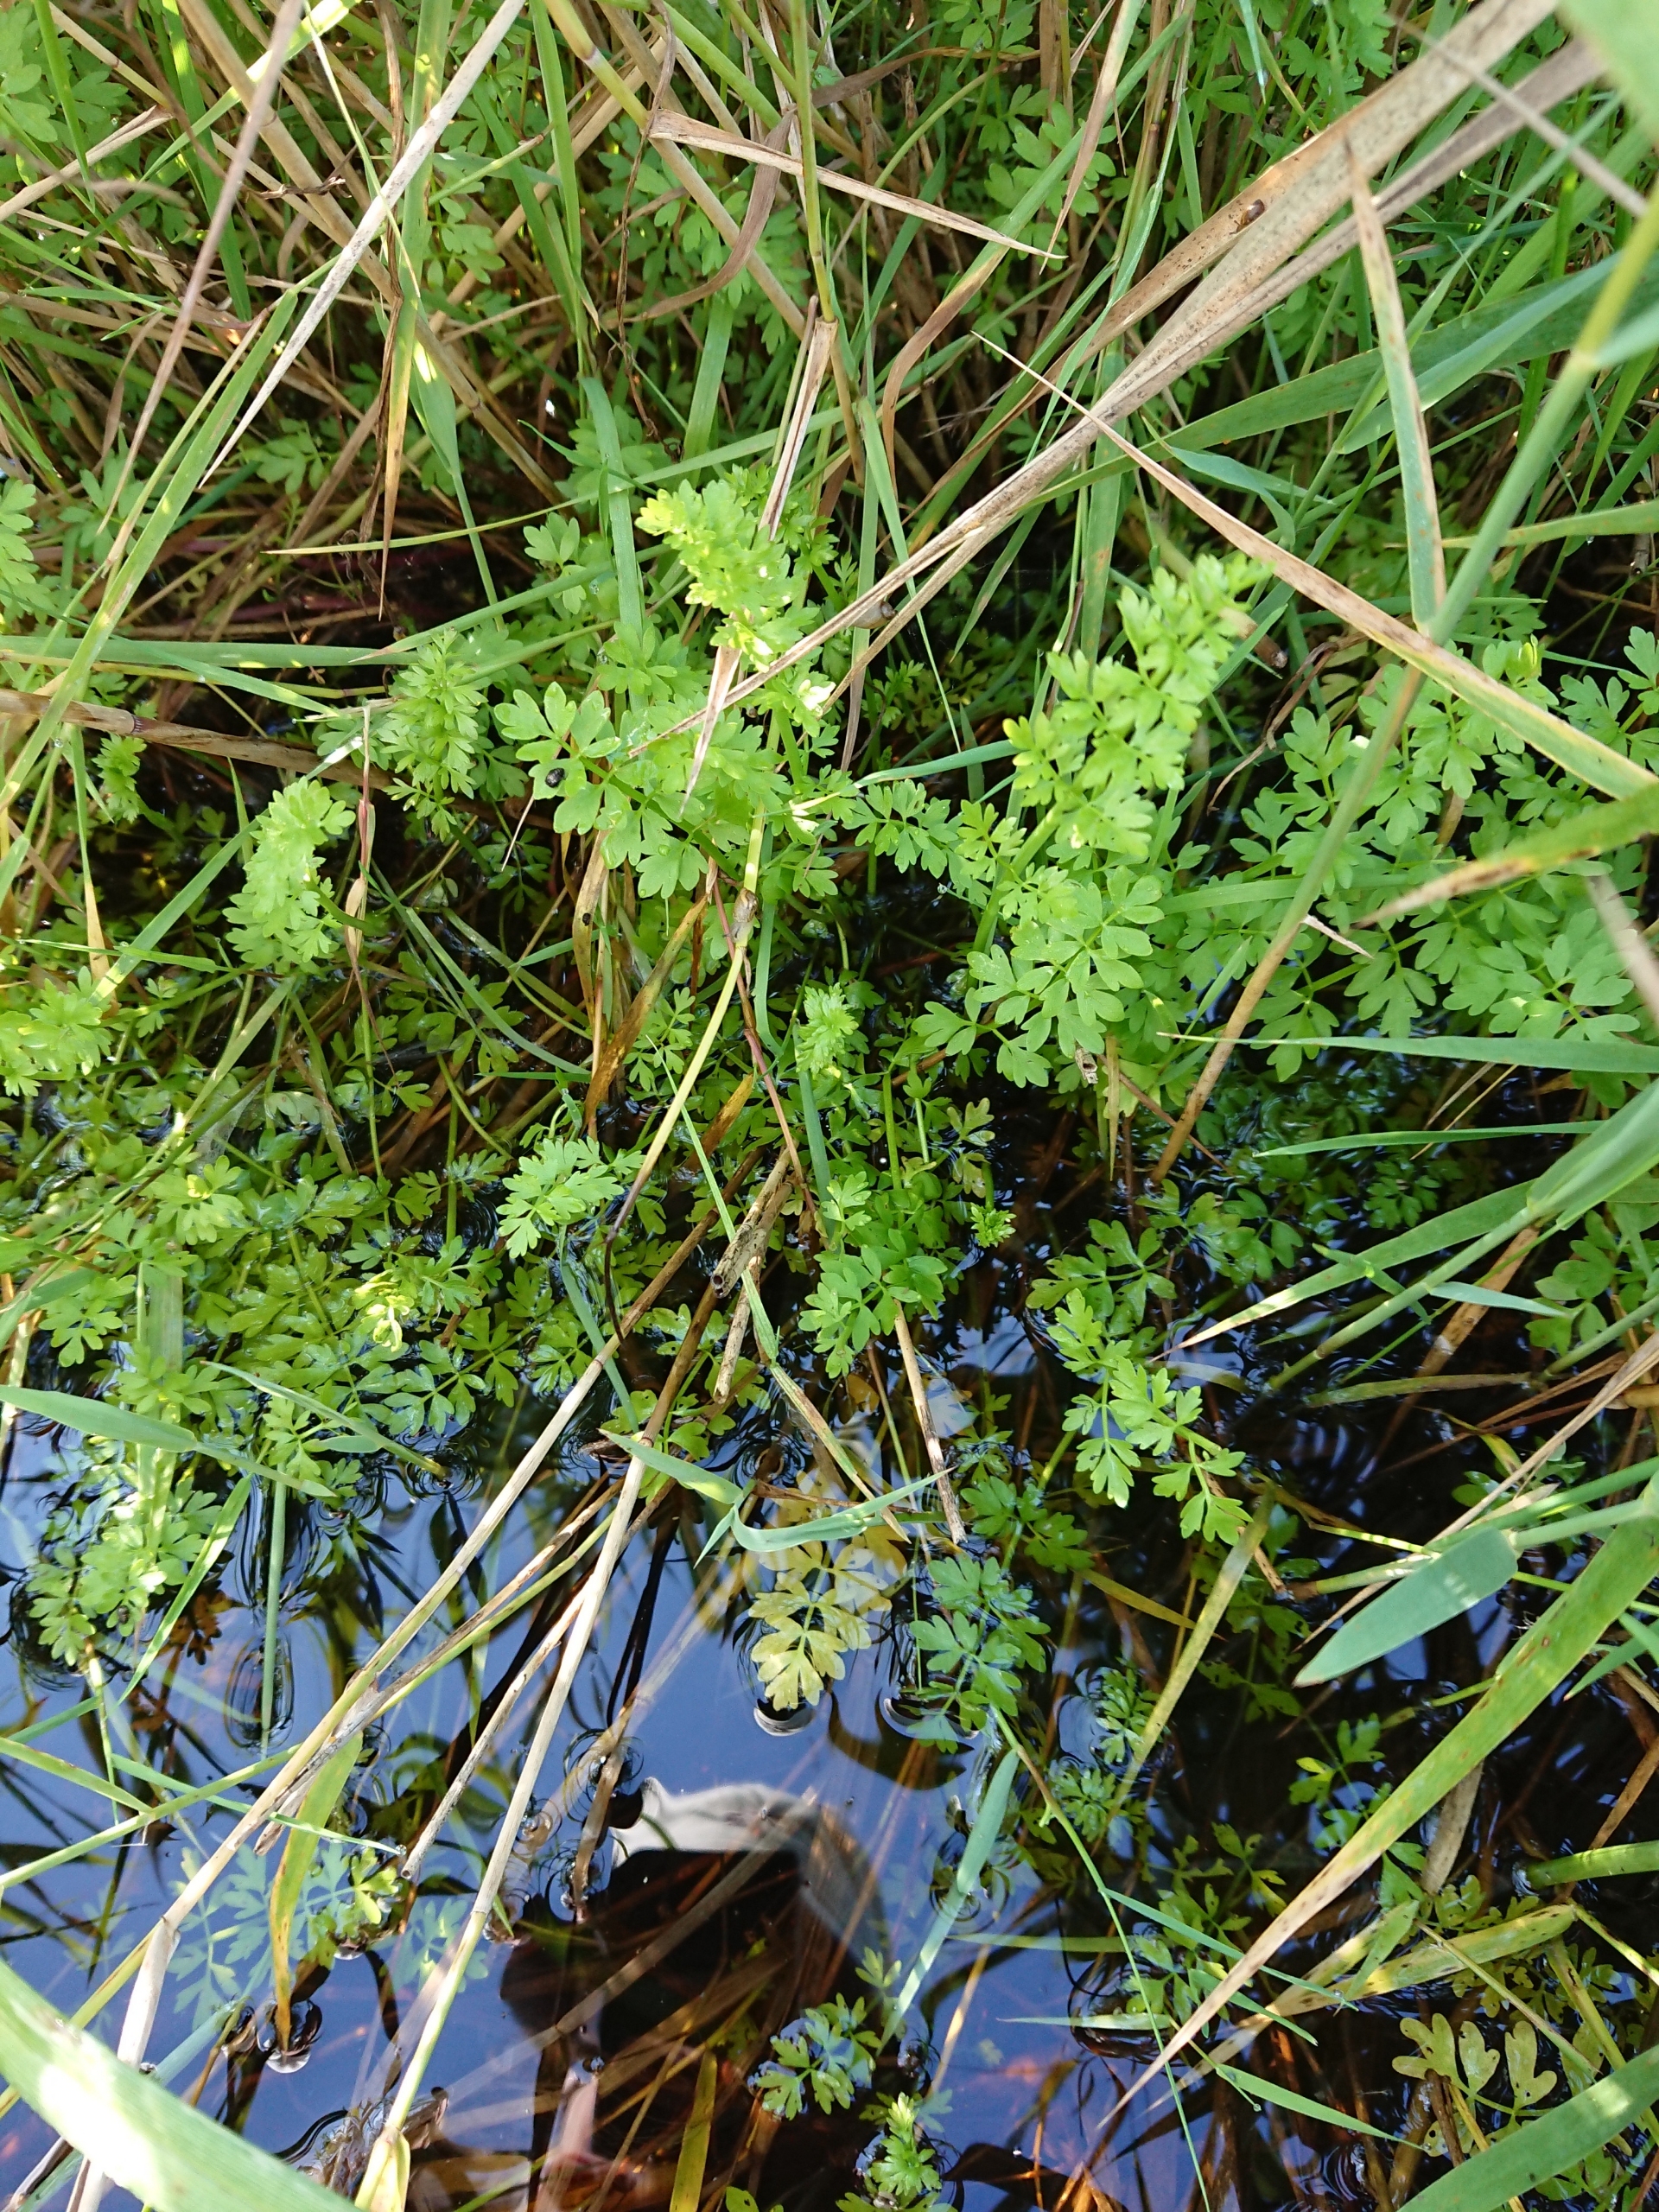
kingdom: Plantae
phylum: Tracheophyta
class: Magnoliopsida
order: Apiales
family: Apiaceae
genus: Oenanthe
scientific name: Oenanthe fistulosa
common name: Vand-klaseskærm
